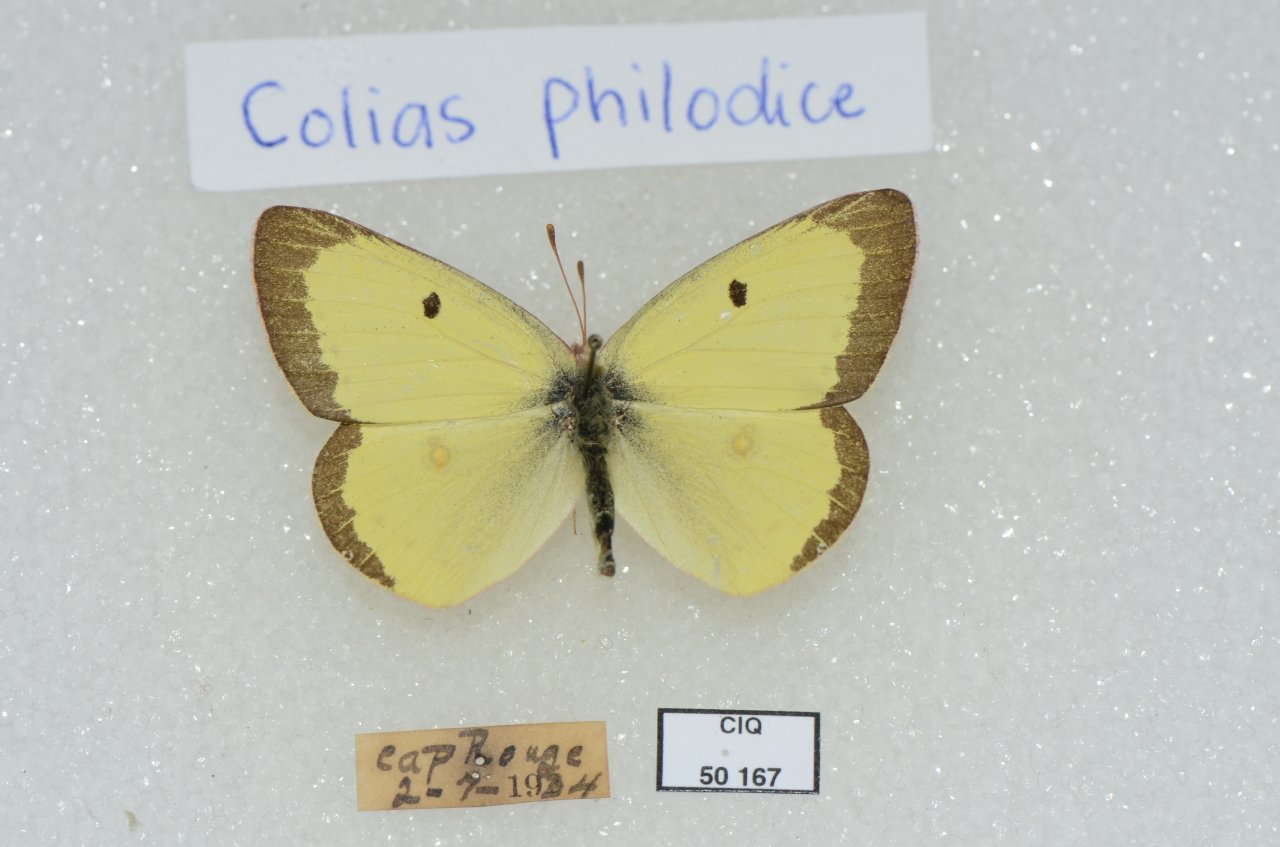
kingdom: Animalia
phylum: Arthropoda
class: Insecta
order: Lepidoptera
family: Pieridae
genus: Colias
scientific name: Colias philodice
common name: Clouded Sulphur
